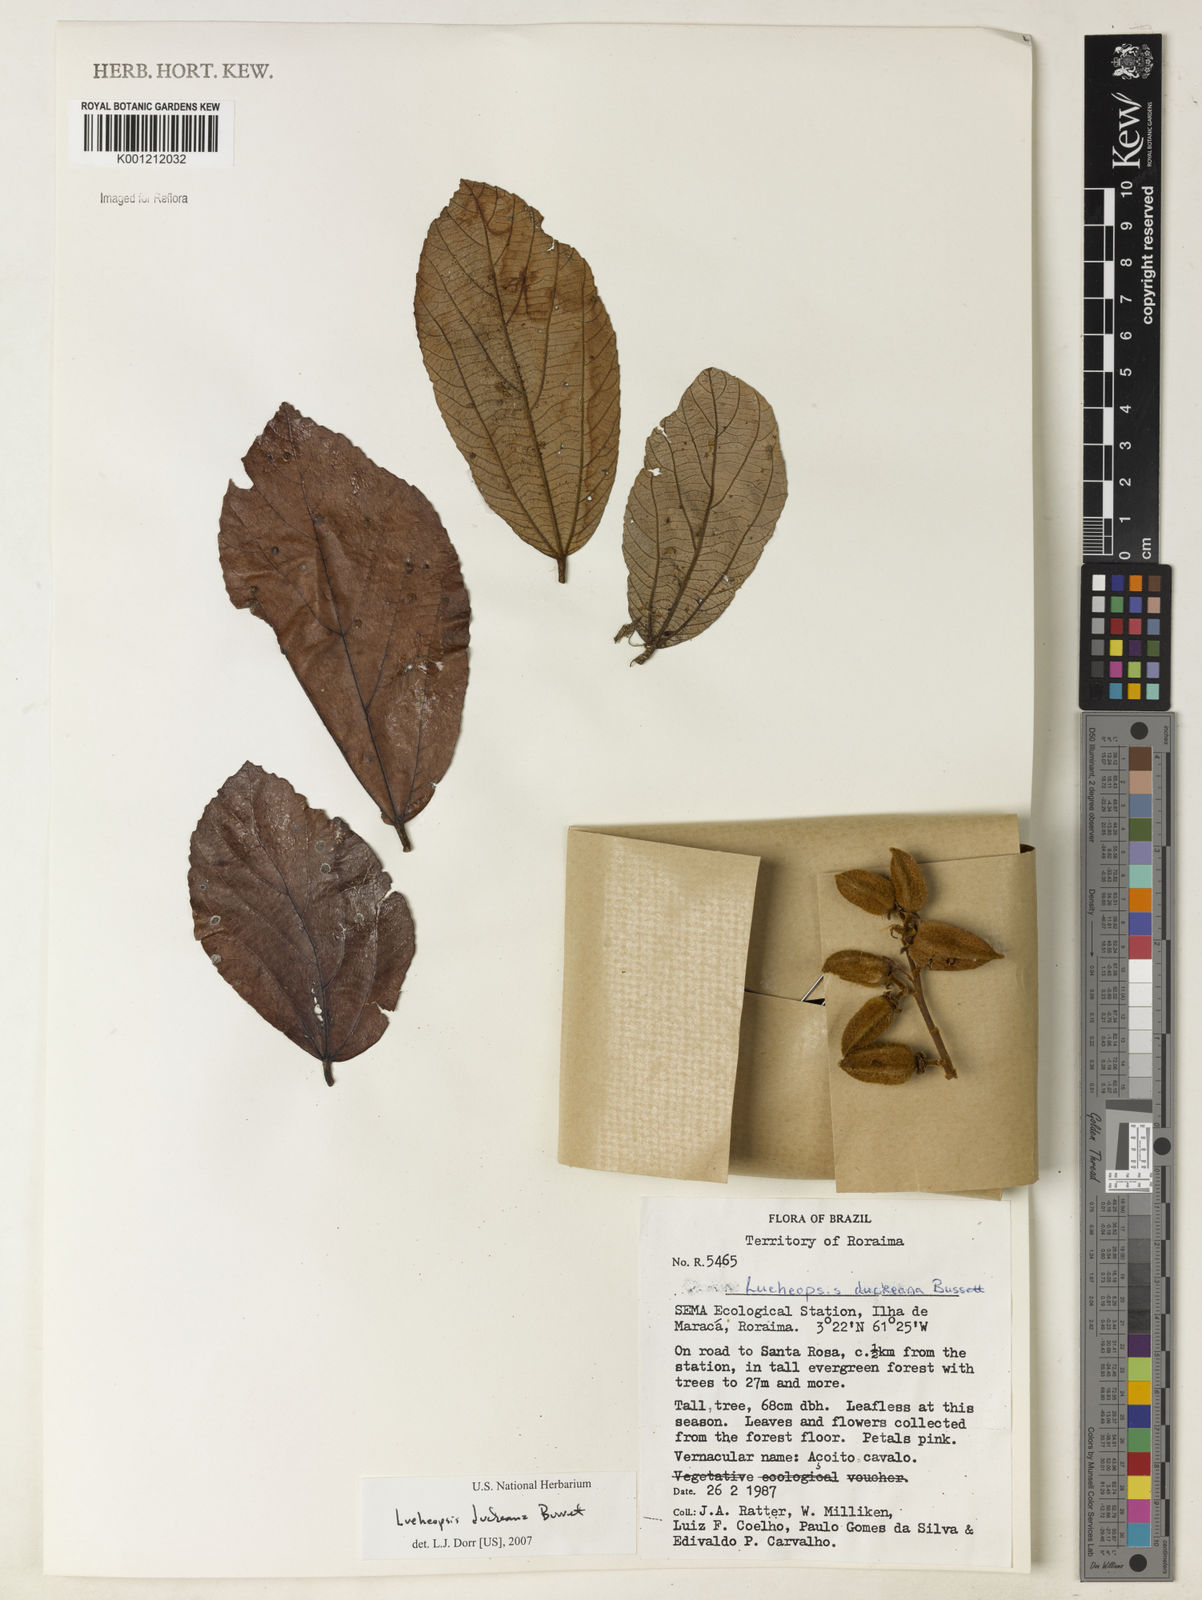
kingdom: Plantae
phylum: Tracheophyta
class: Magnoliopsida
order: Malvales
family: Malvaceae
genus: Lueheopsis
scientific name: Lueheopsis duckeana
